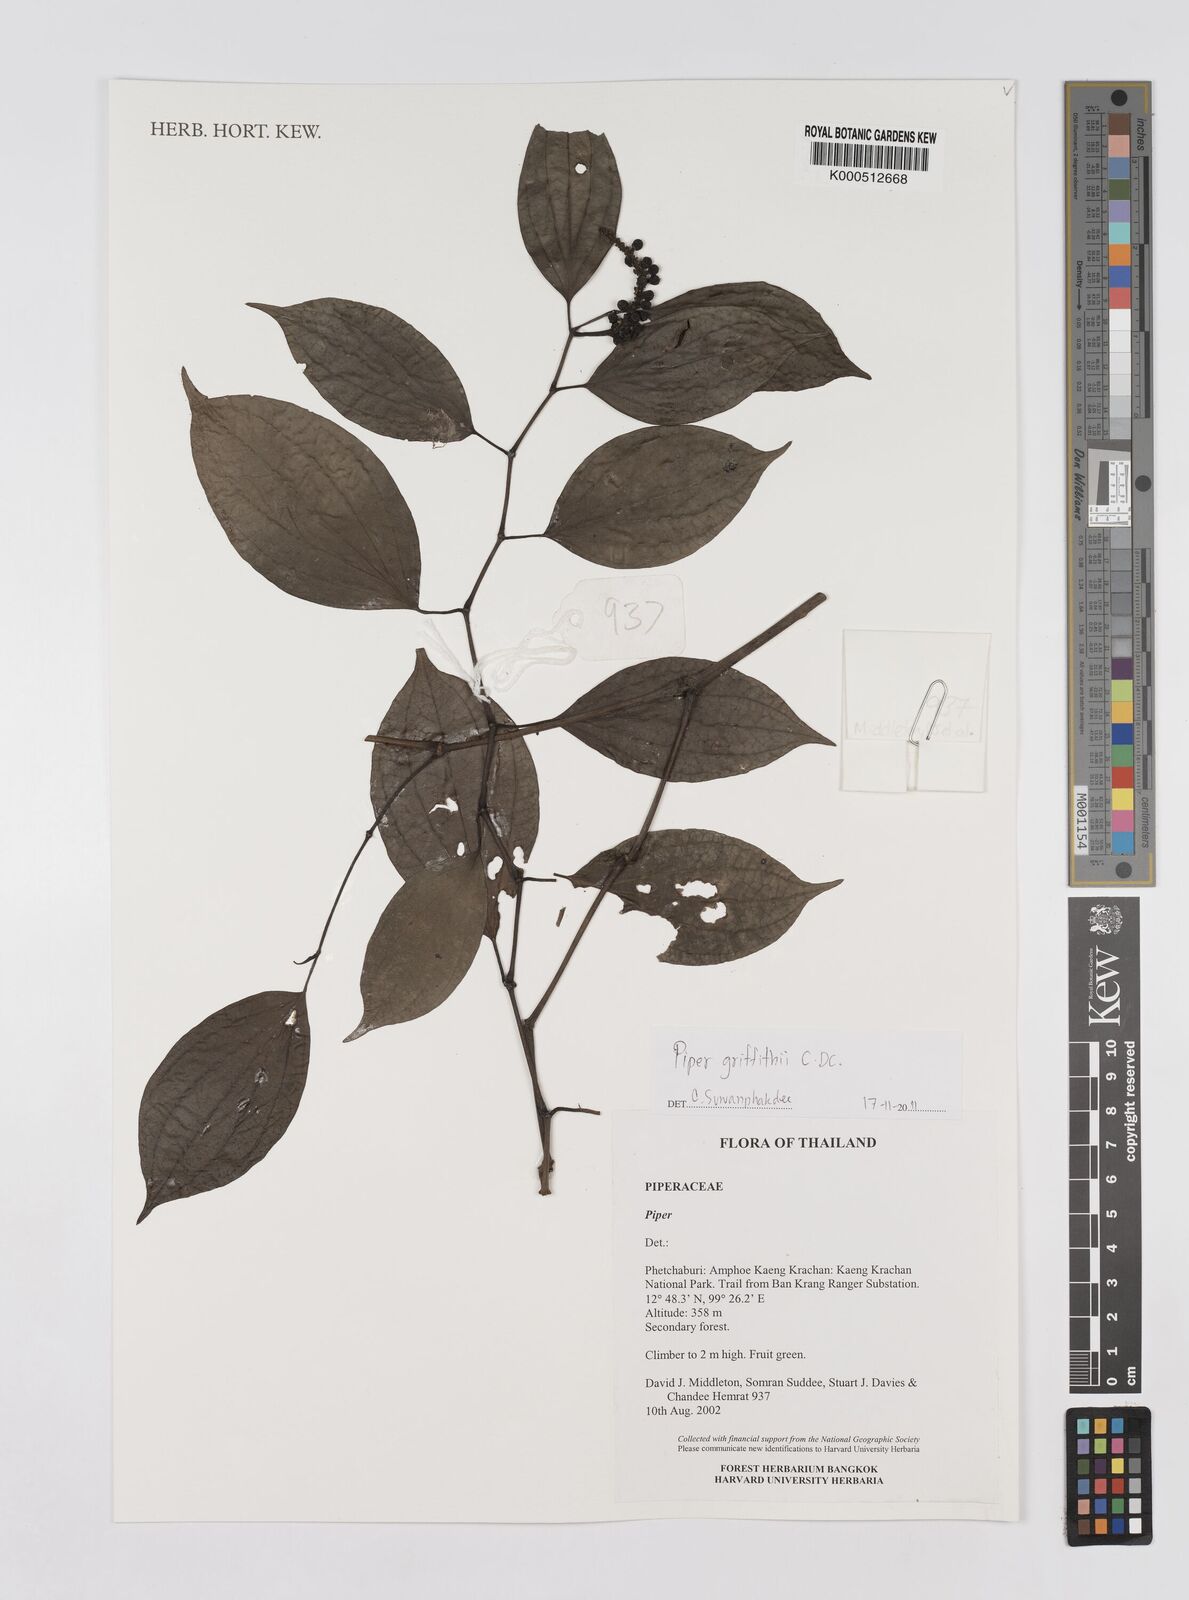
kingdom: Plantae
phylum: Tracheophyta
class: Magnoliopsida
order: Piperales
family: Piperaceae
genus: Piper
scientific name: Piper
